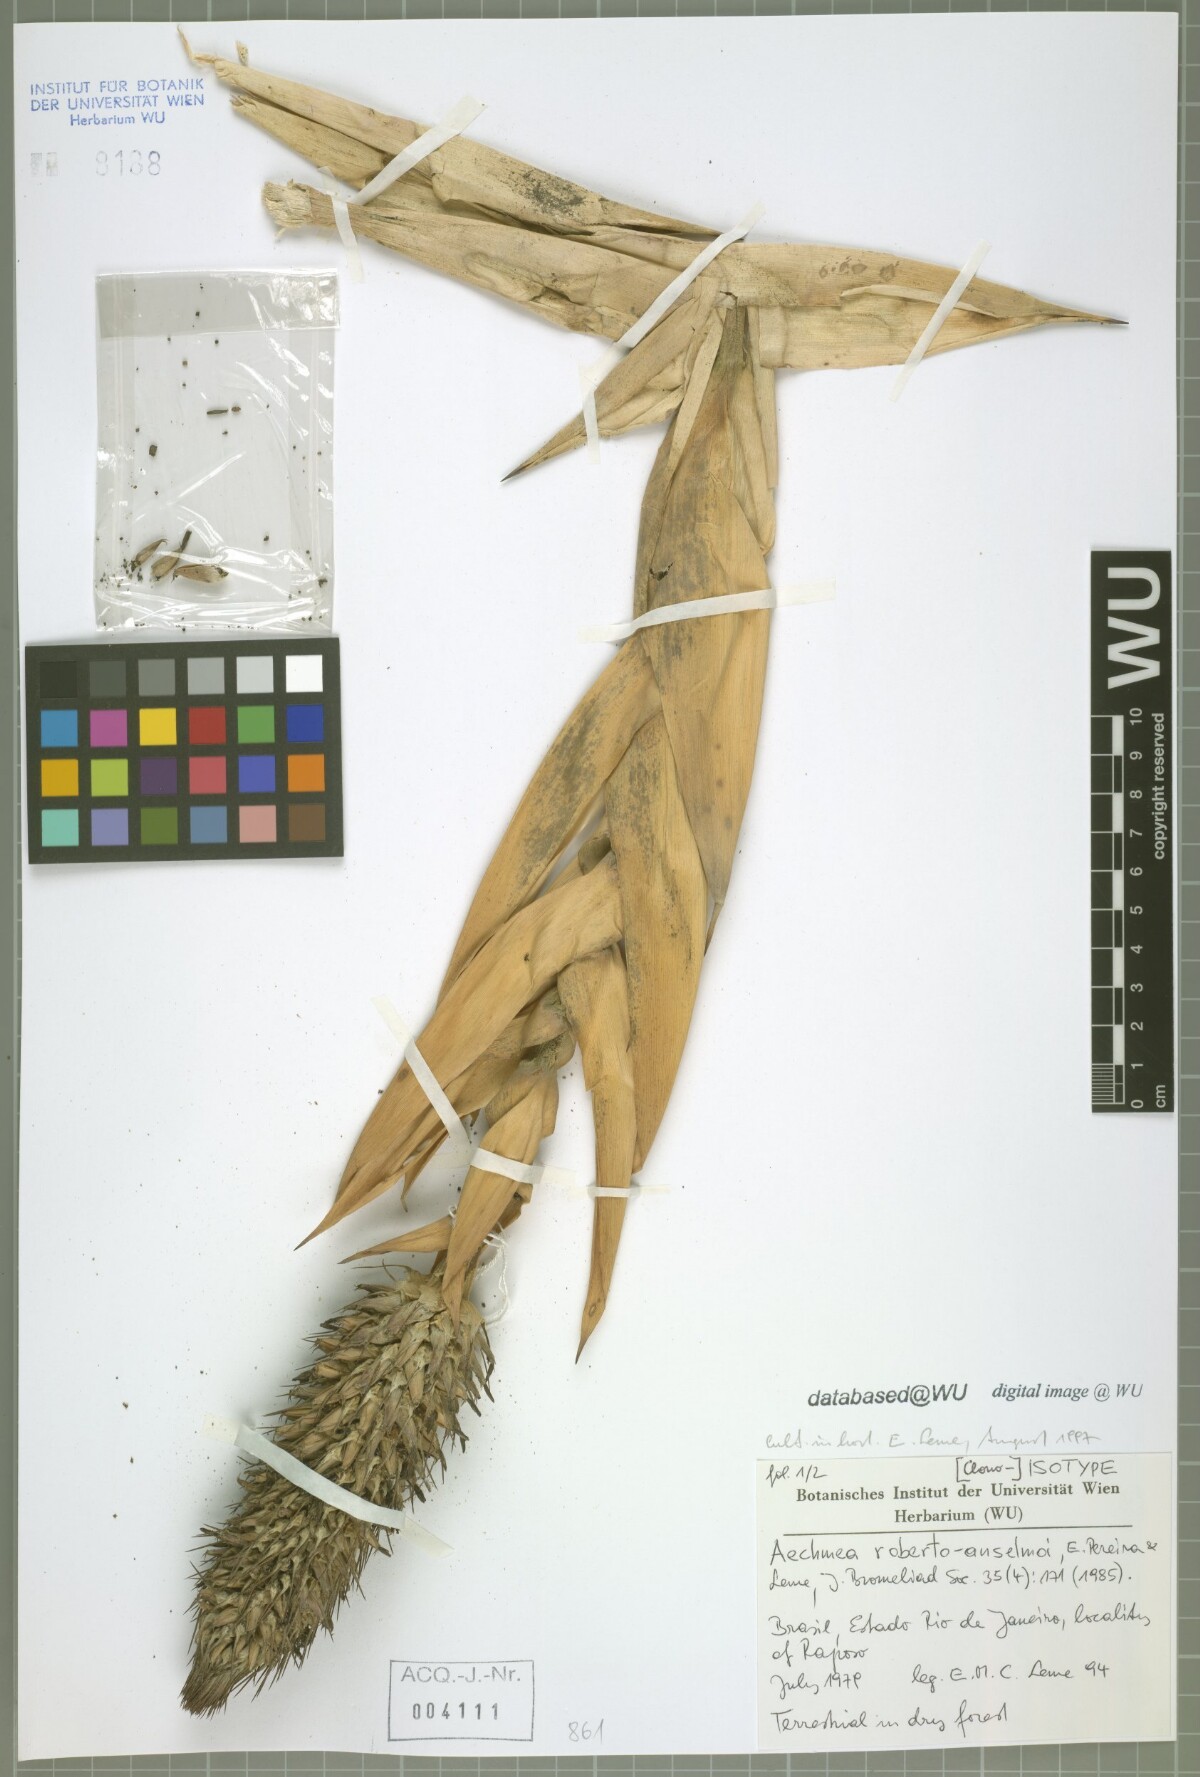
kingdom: Plantae
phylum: Tracheophyta
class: Liliopsida
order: Poales
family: Bromeliaceae
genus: Aechmea
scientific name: Aechmea roberto-anselmoi
